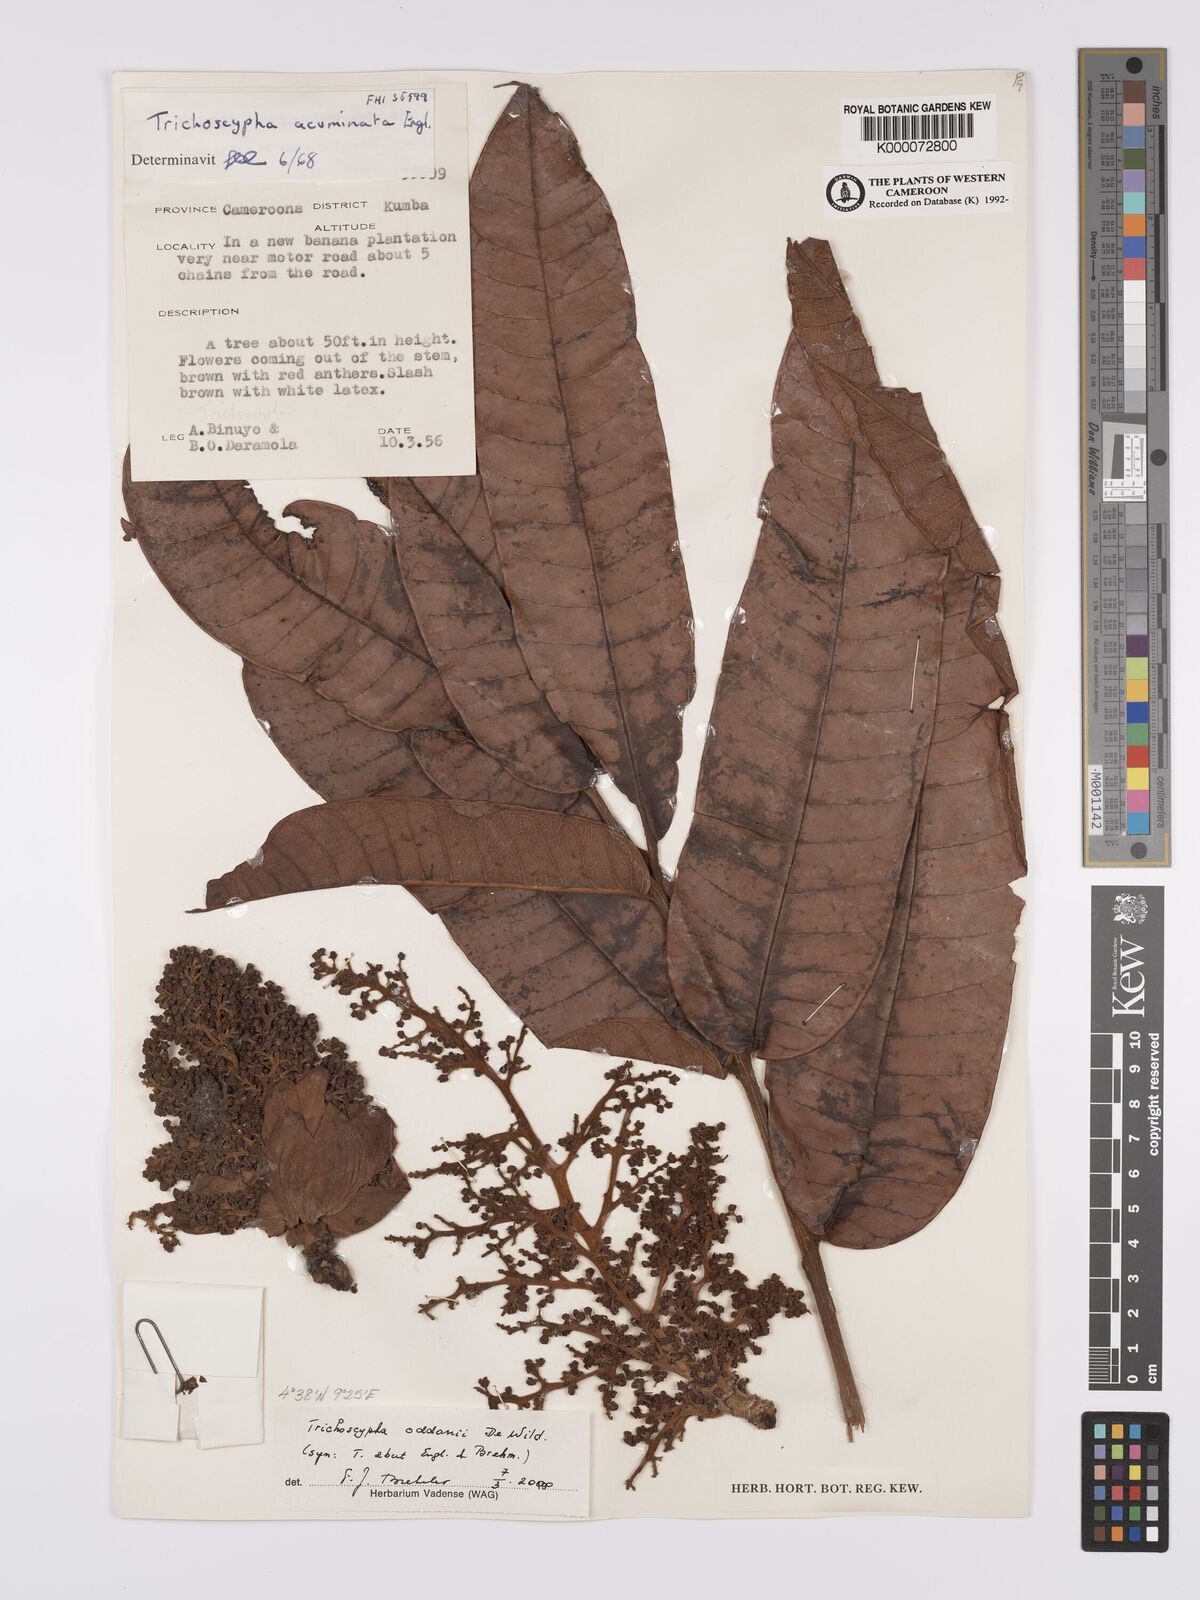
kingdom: Plantae
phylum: Tracheophyta
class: Magnoliopsida
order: Sapindales
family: Anacardiaceae
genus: Trichoscypha
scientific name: Trichoscypha oddonii
